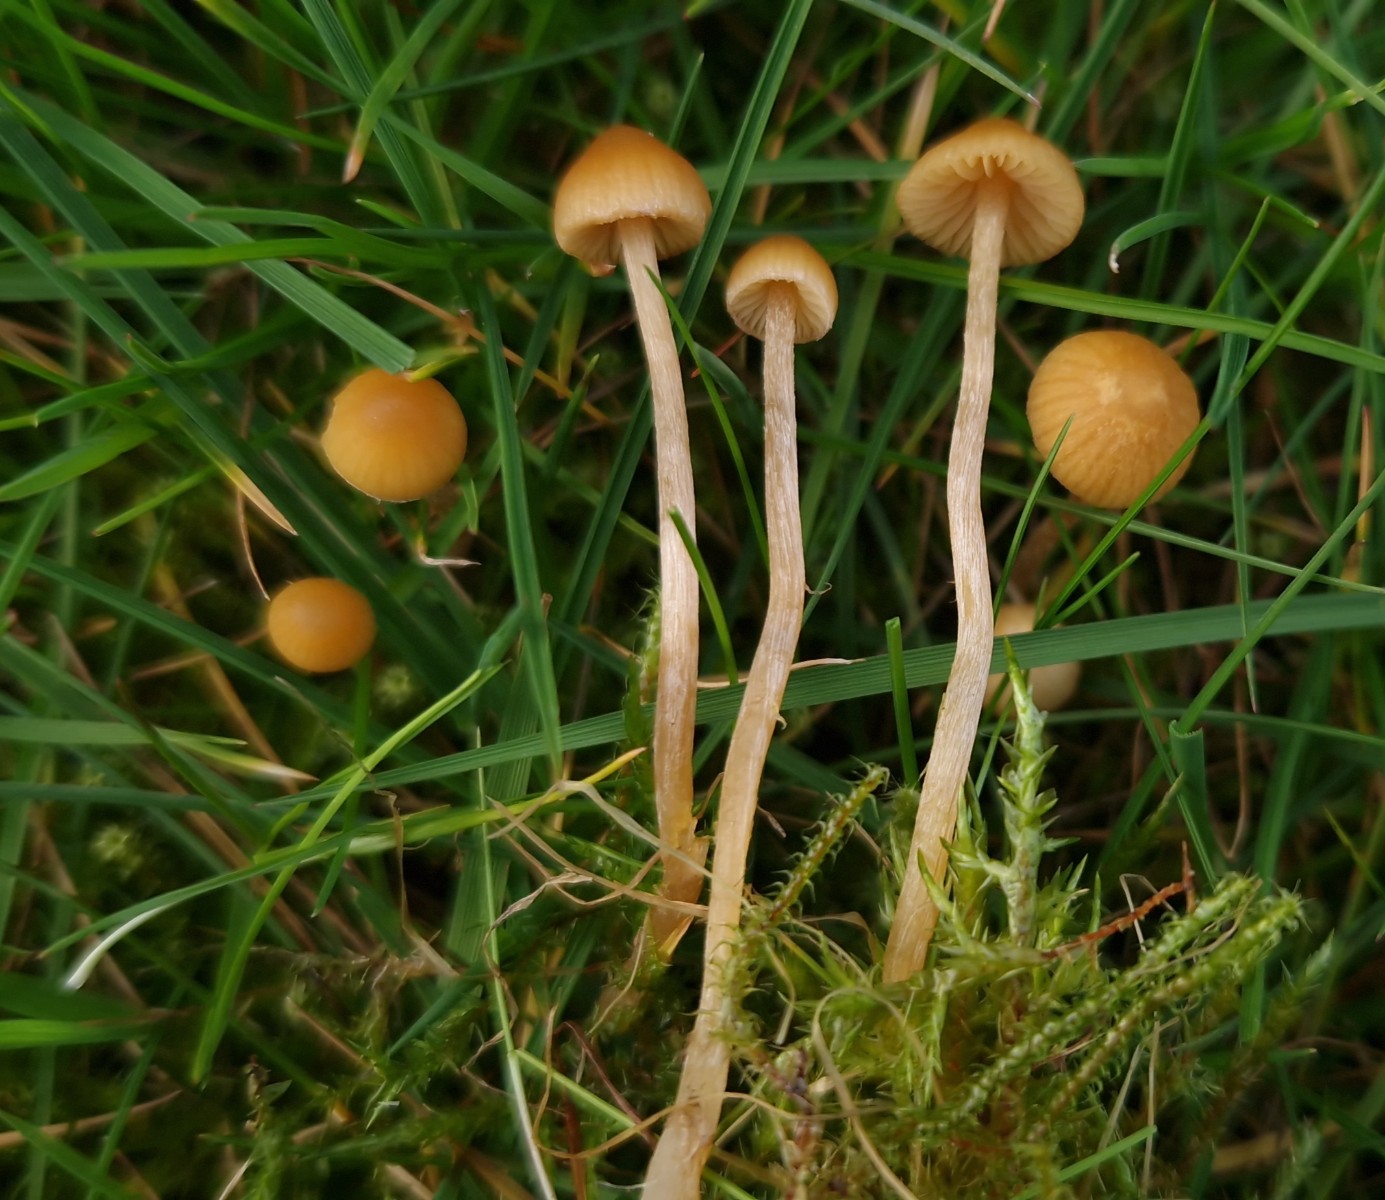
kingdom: Fungi
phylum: Basidiomycota
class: Agaricomycetes
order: Agaricales
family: Hymenogastraceae
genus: Galerina
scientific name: Galerina
